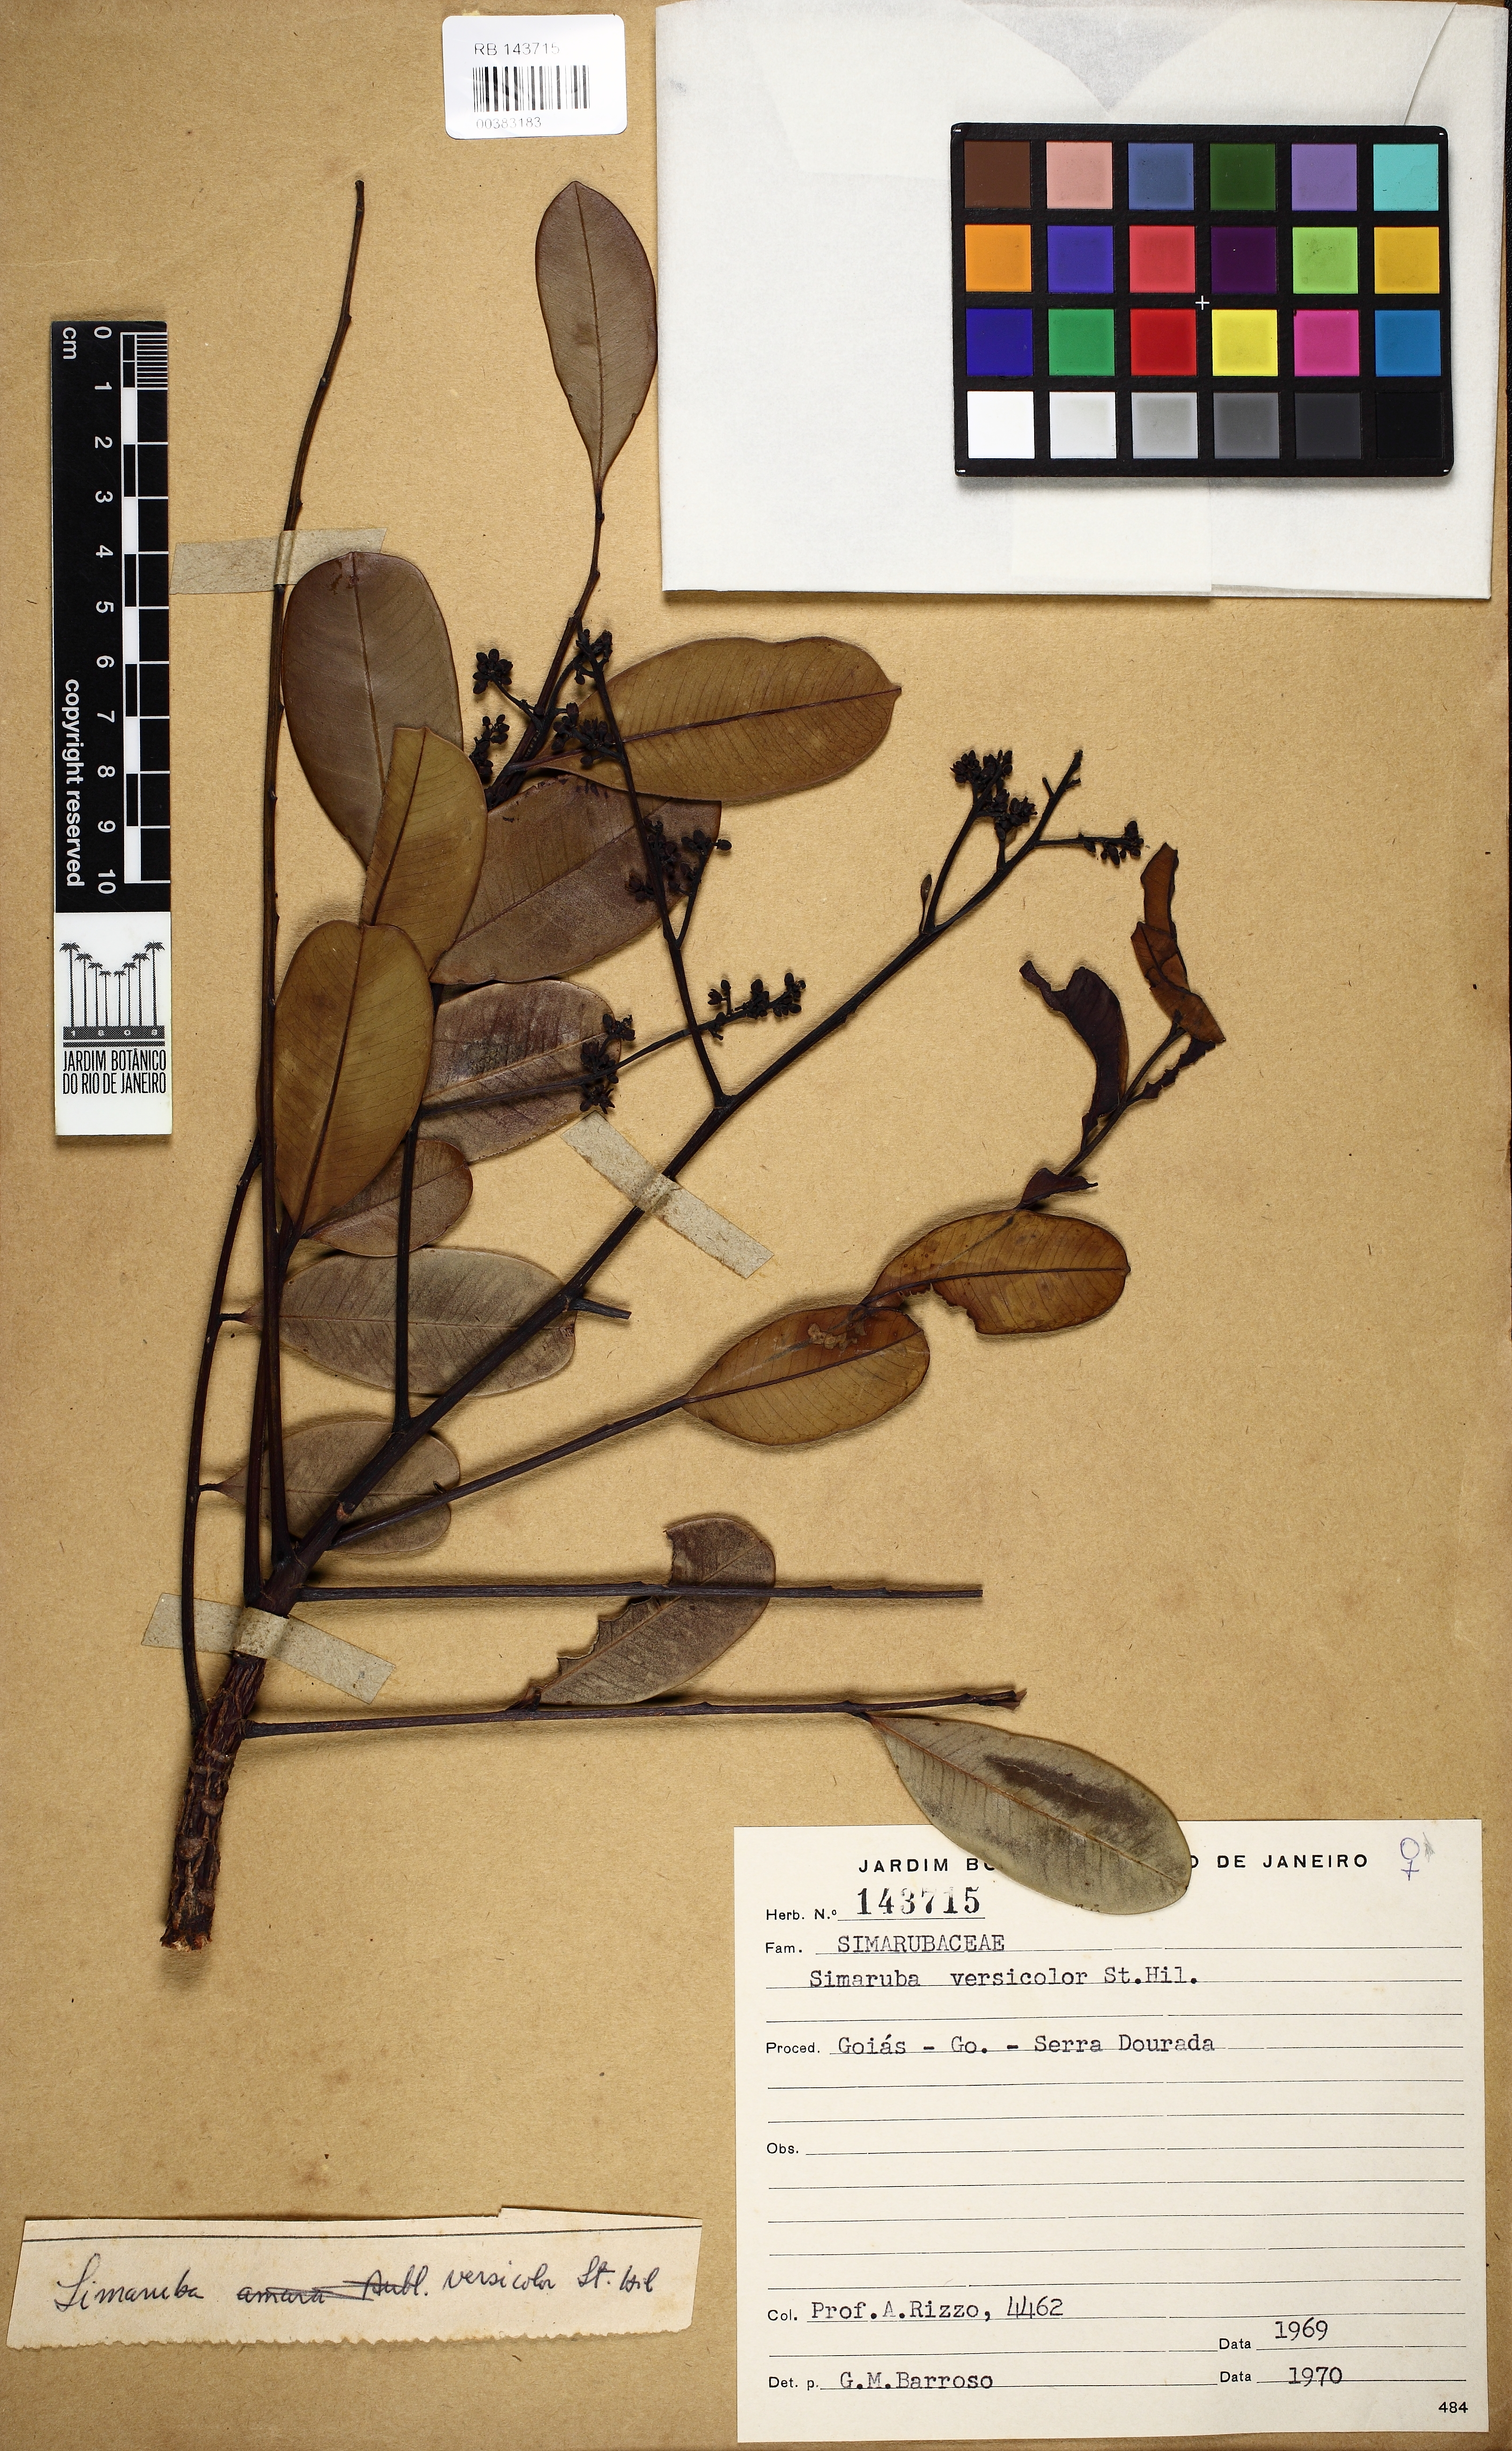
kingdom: Plantae
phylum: Tracheophyta
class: Magnoliopsida
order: Sapindales
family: Simaroubaceae
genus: Simarouba
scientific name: Simarouba versicolor
